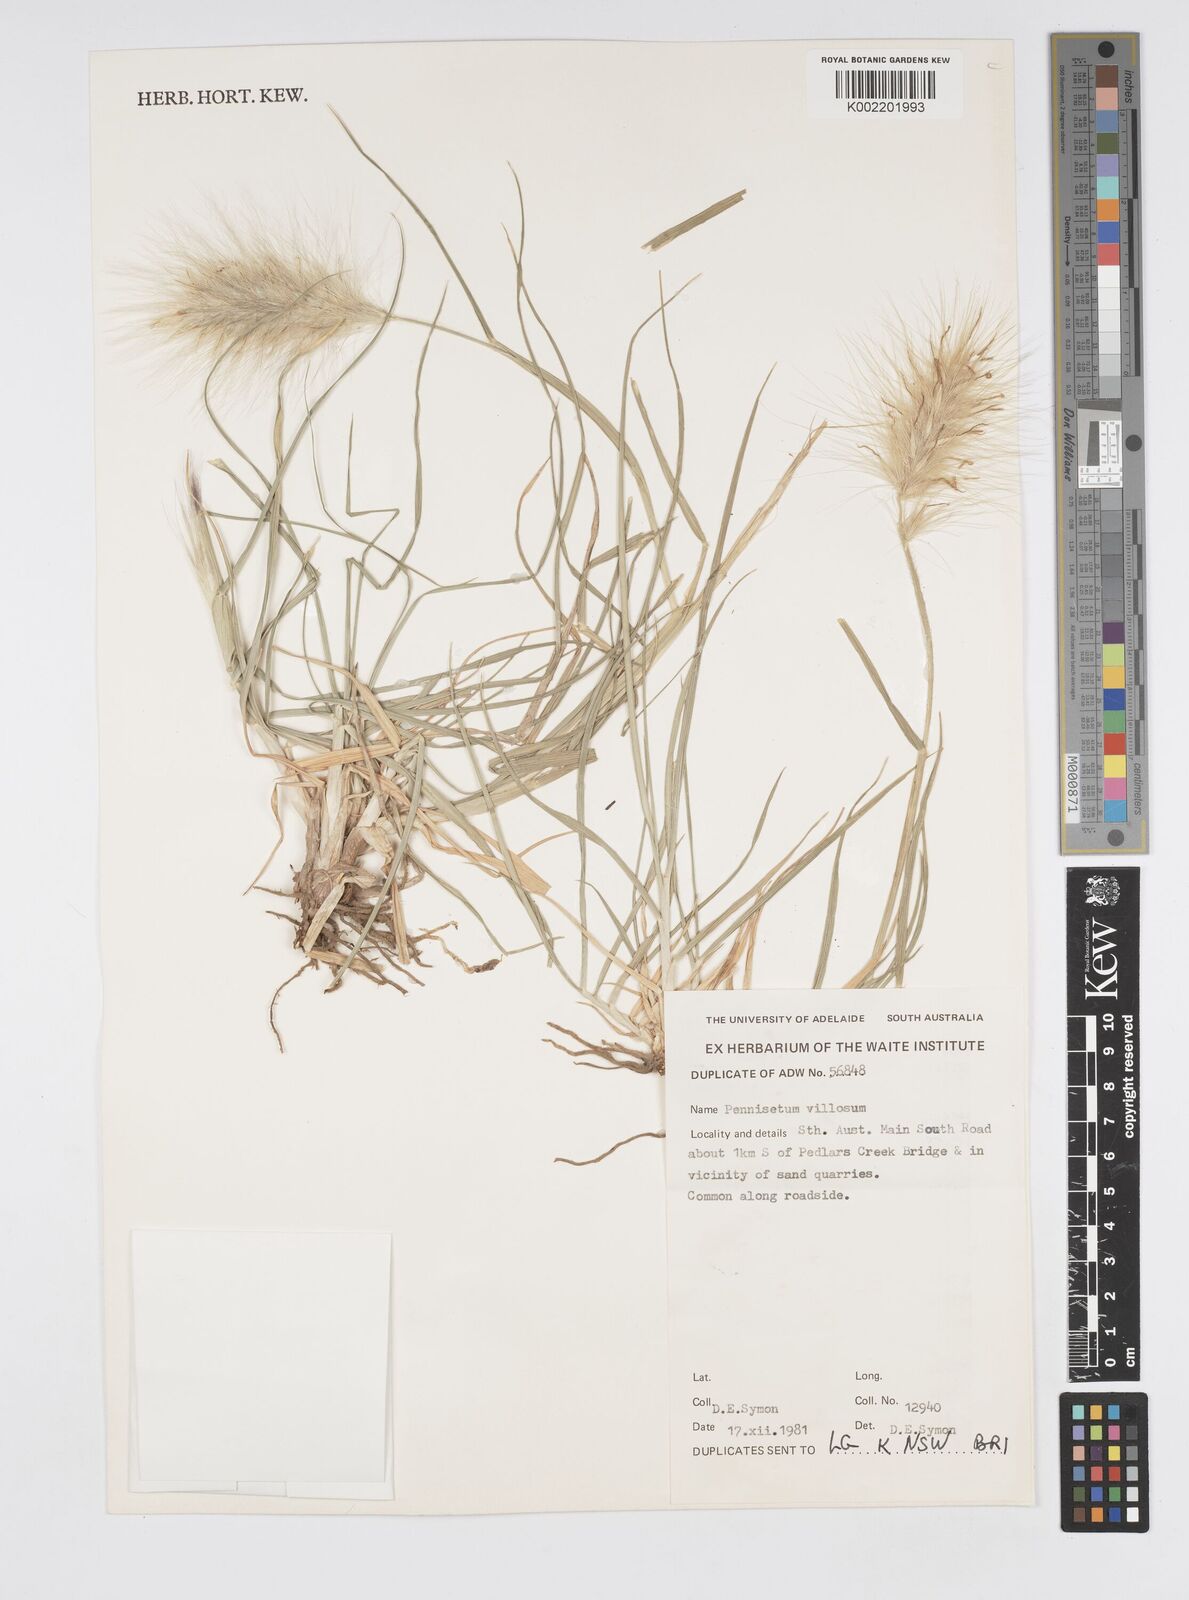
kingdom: Plantae
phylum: Tracheophyta
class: Liliopsida
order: Poales
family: Poaceae
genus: Cenchrus
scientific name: Cenchrus longisetus
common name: Feathertop
